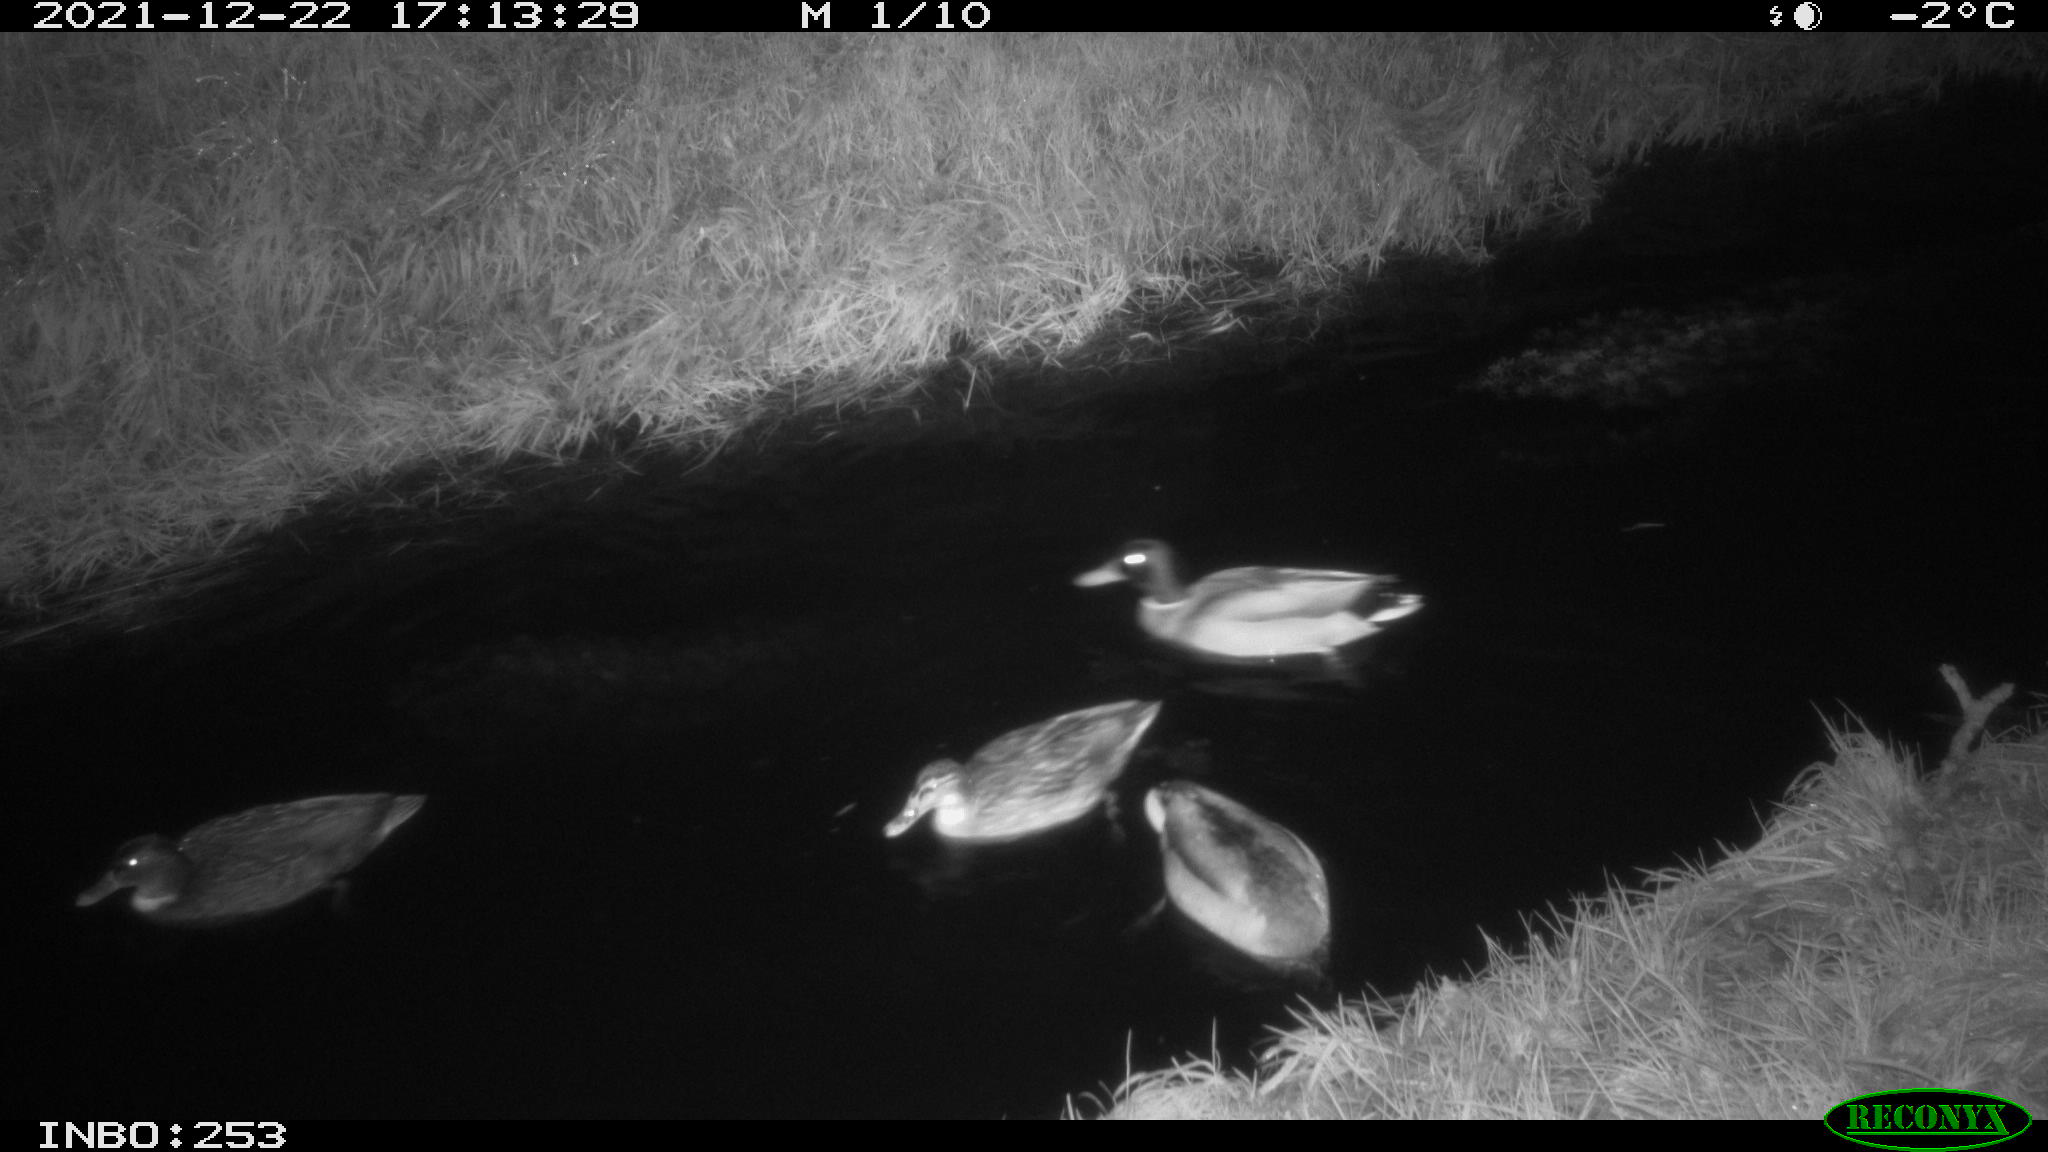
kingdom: Animalia
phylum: Chordata
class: Aves
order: Anseriformes
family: Anatidae
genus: Anas
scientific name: Anas
